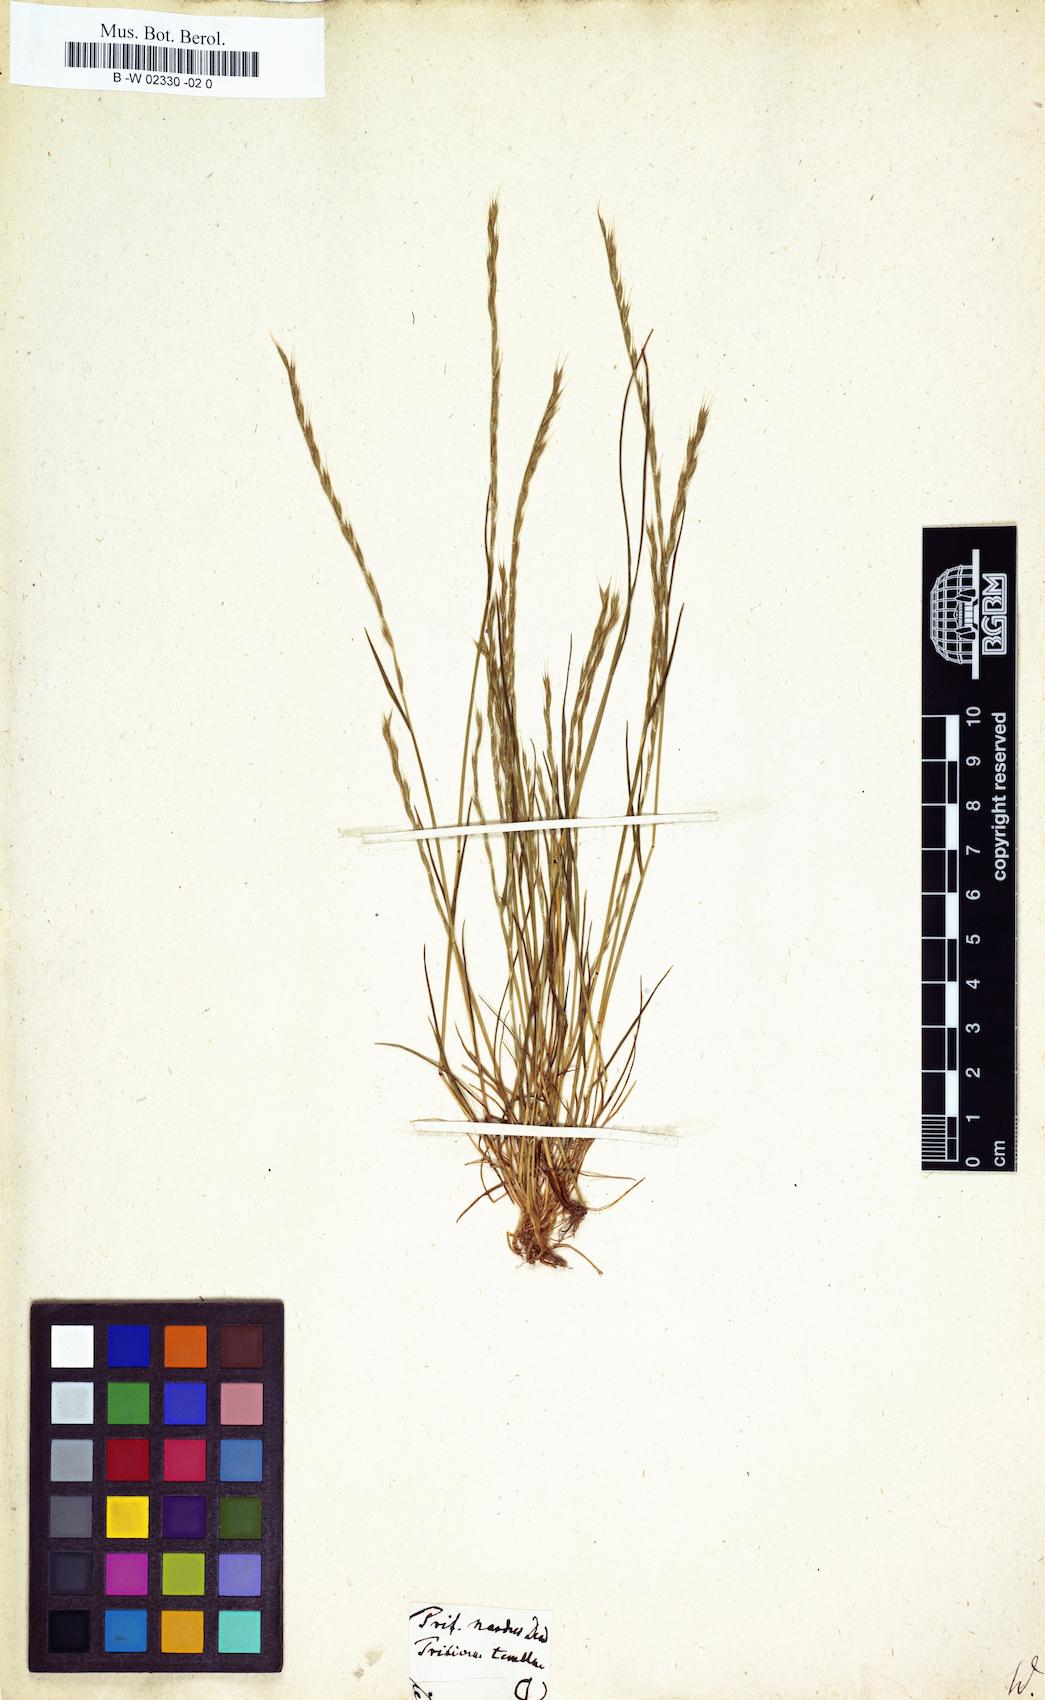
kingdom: Plantae
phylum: Tracheophyta
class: Liliopsida
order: Poales
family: Poaceae
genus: Festuca
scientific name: Festuca lachenalii
